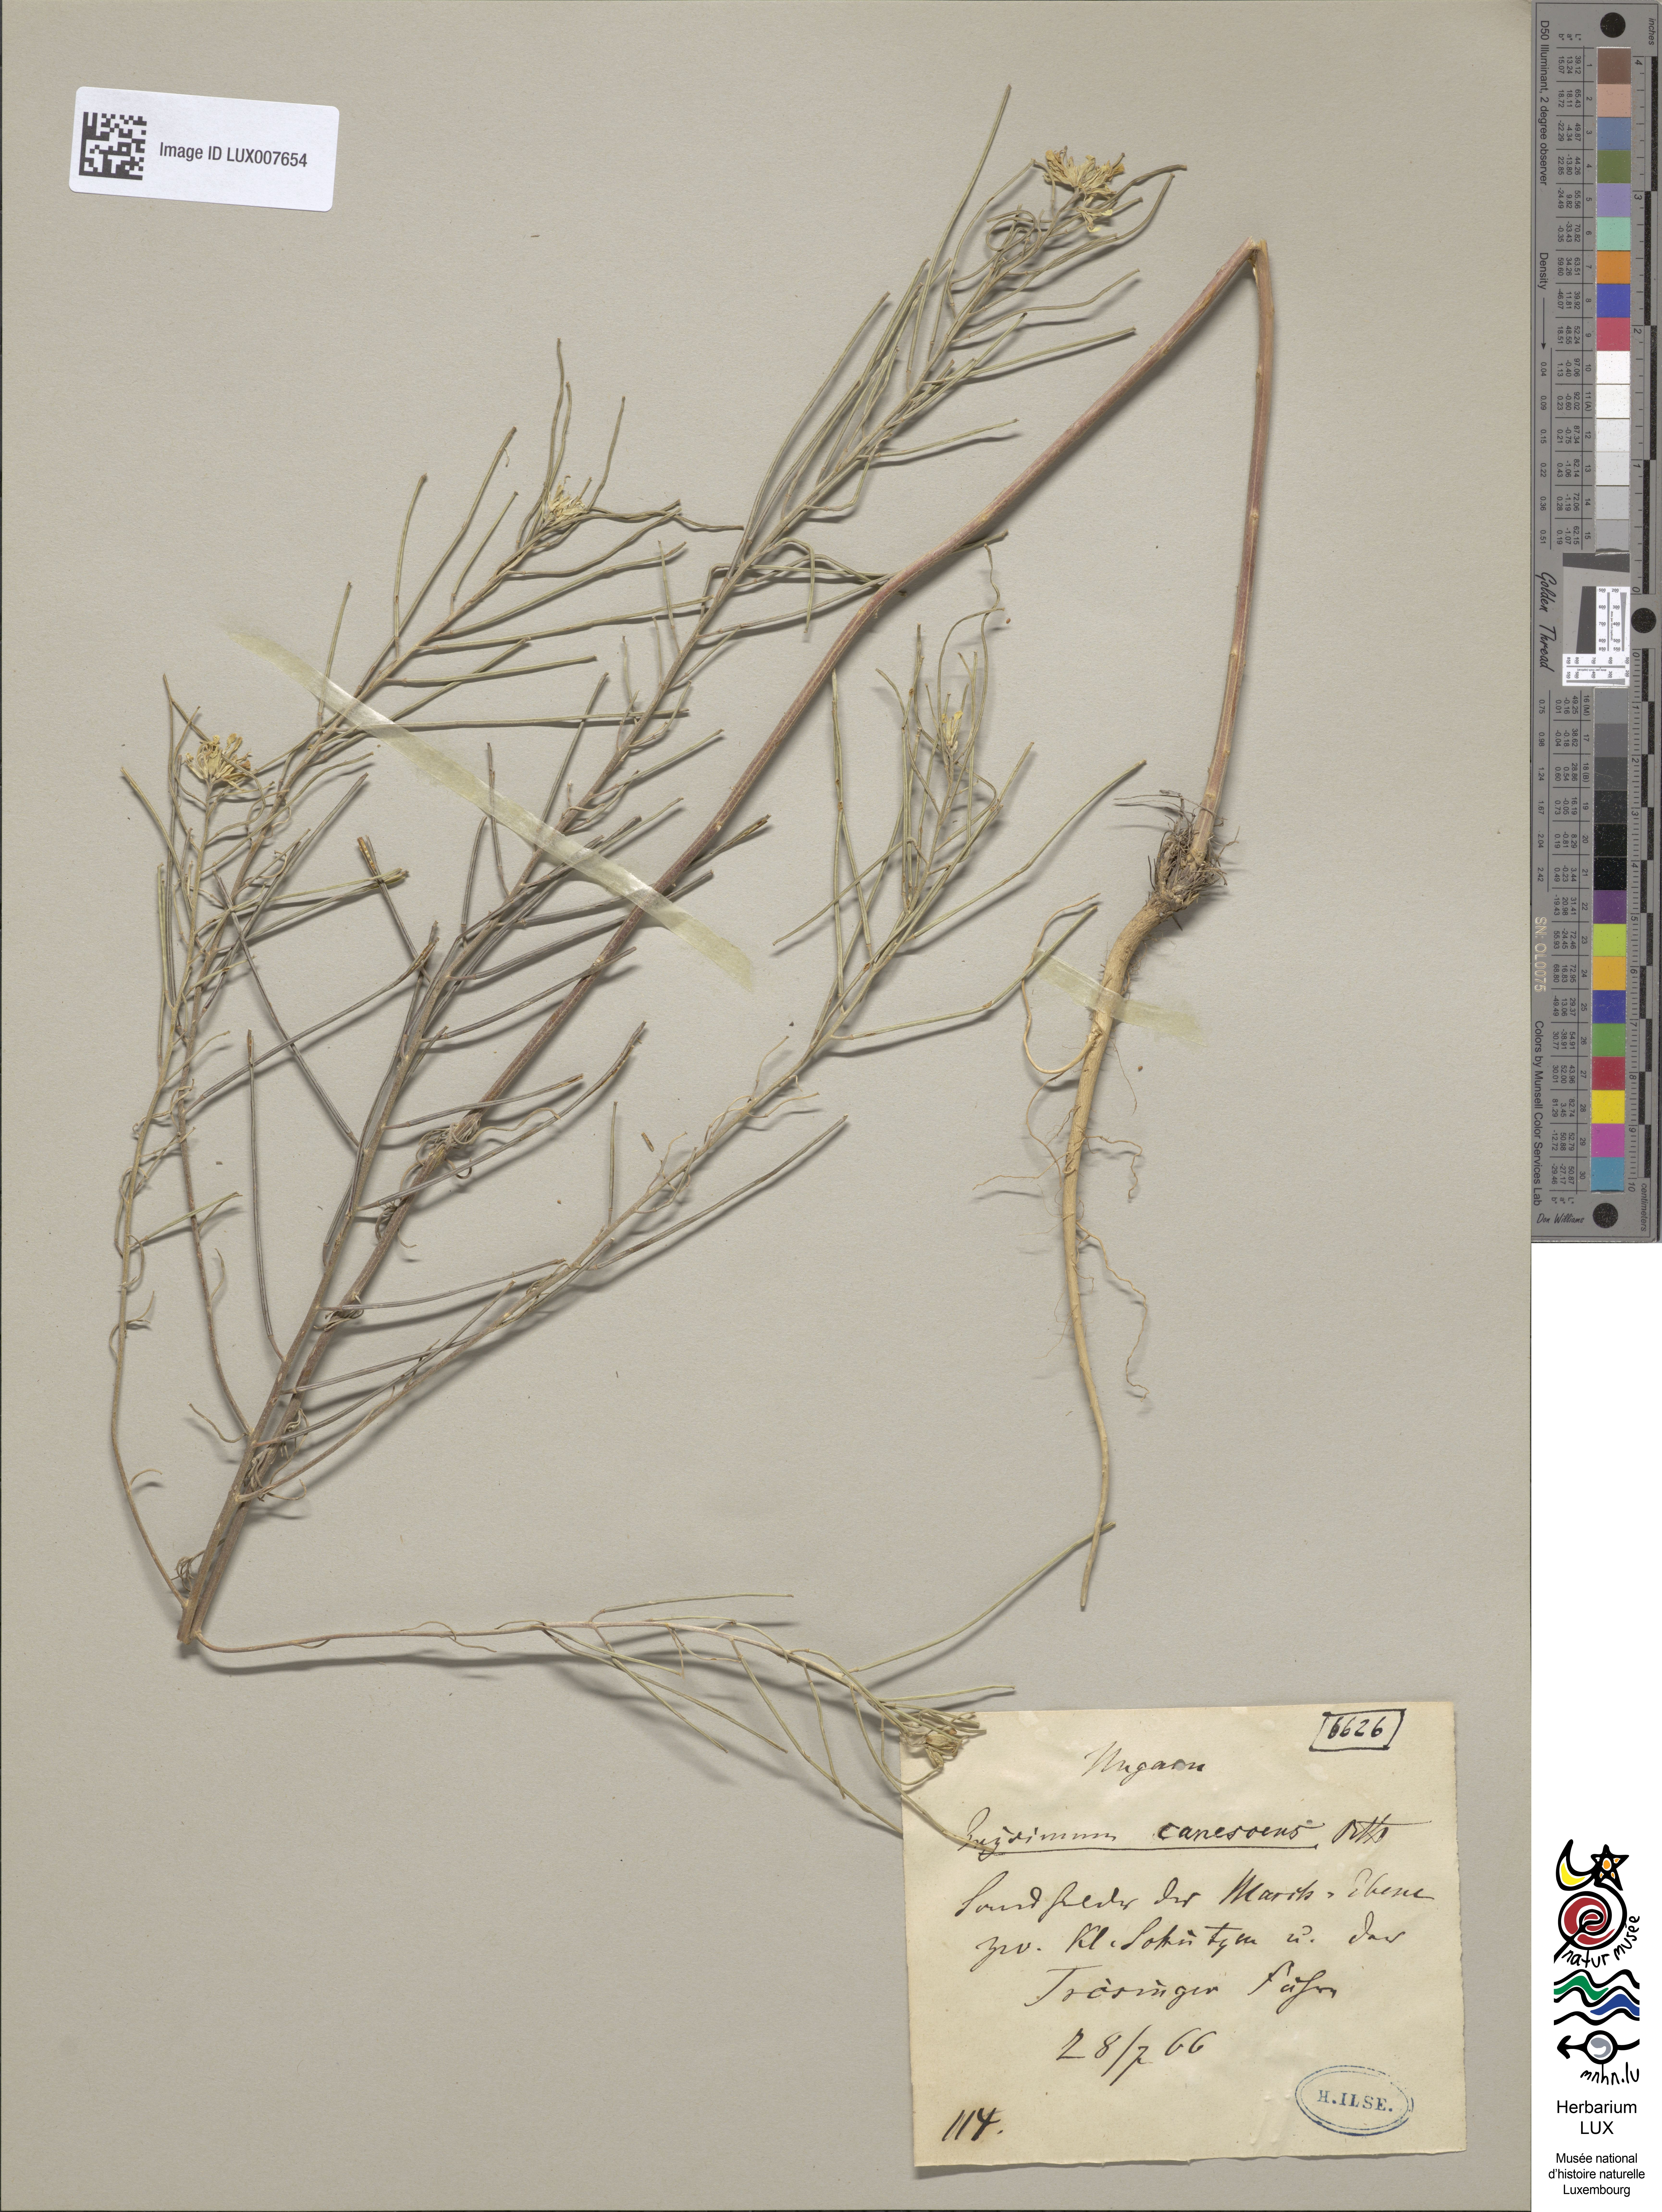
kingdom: Plantae
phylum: Tracheophyta
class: Magnoliopsida
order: Brassicales
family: Brassicaceae
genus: Erysimum
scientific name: Erysimum diffusum
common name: Diffuse wallflower
